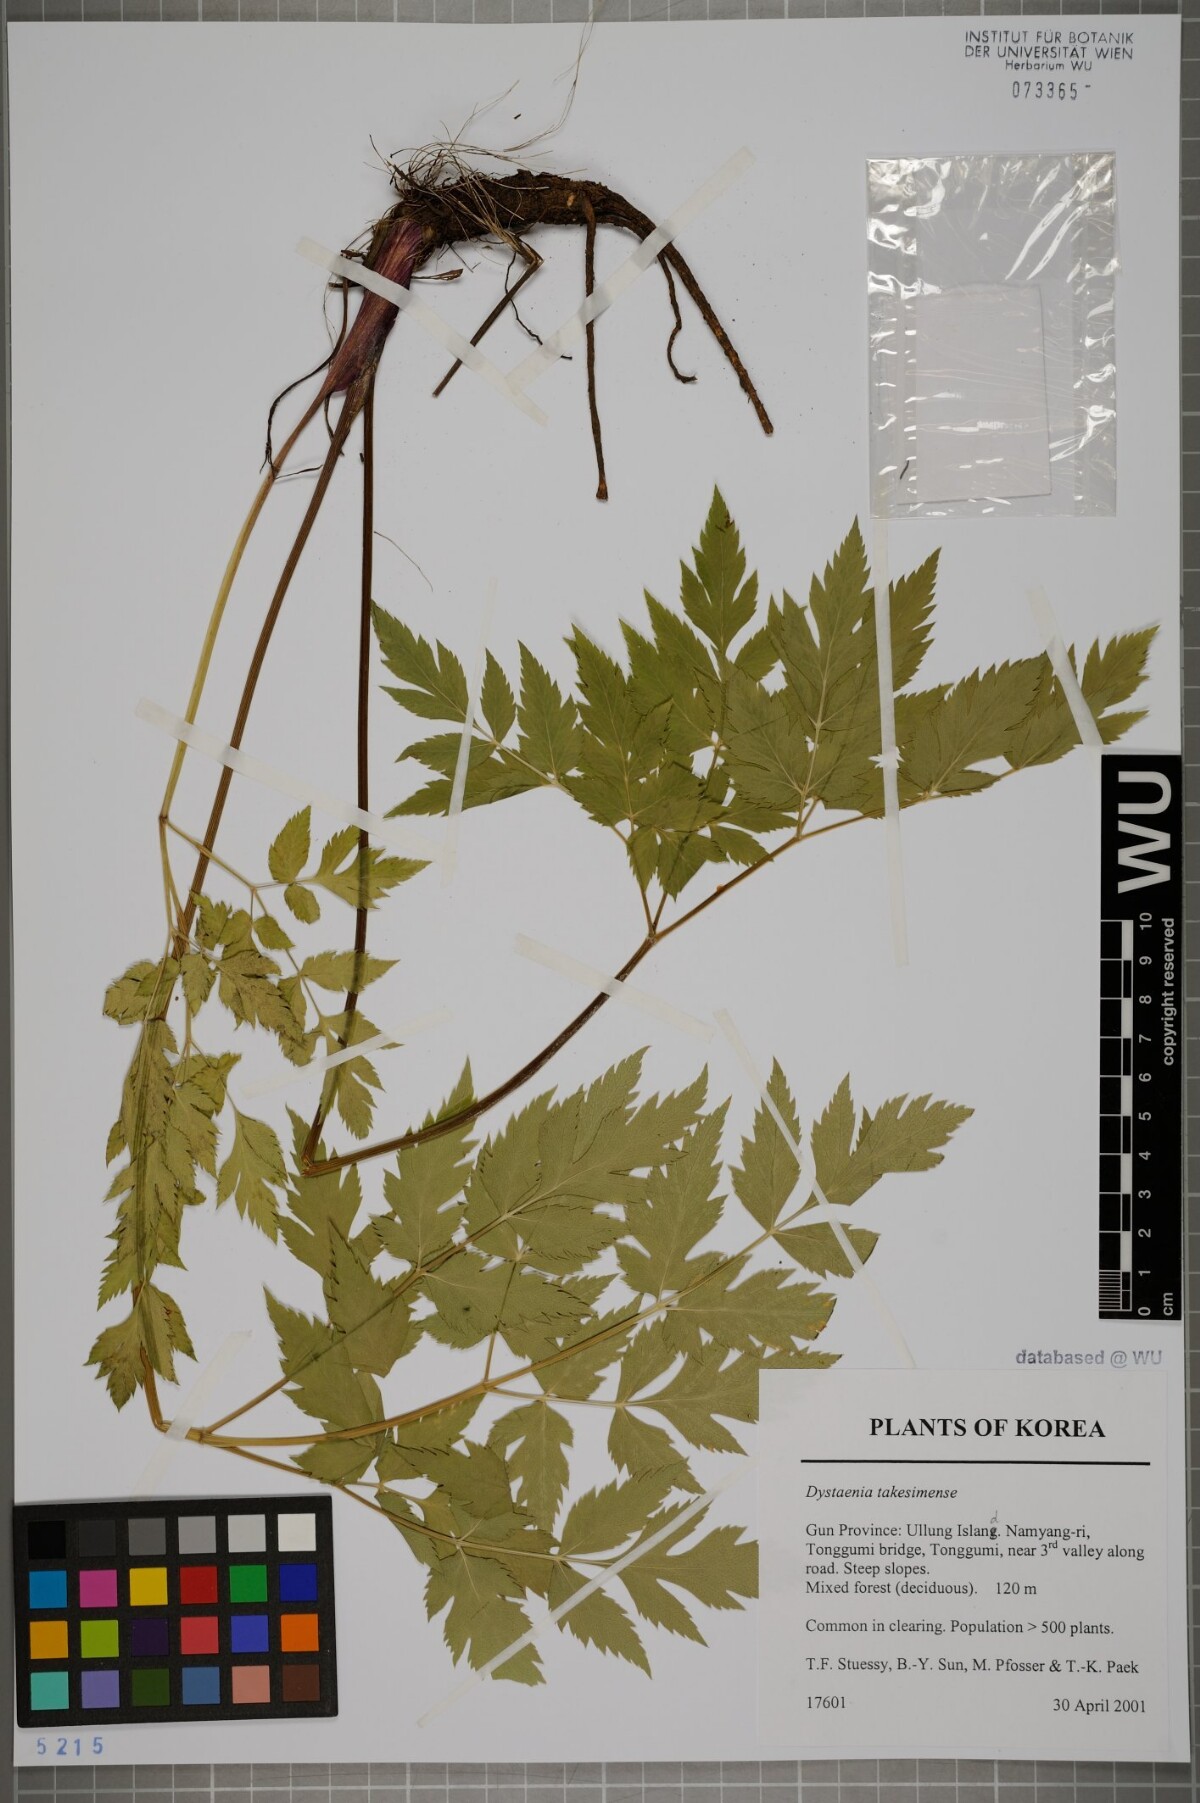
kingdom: Plantae
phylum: Tracheophyta
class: Magnoliopsida
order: Apiales
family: Apiaceae
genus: Dystaenia
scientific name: Dystaenia takeshimana
